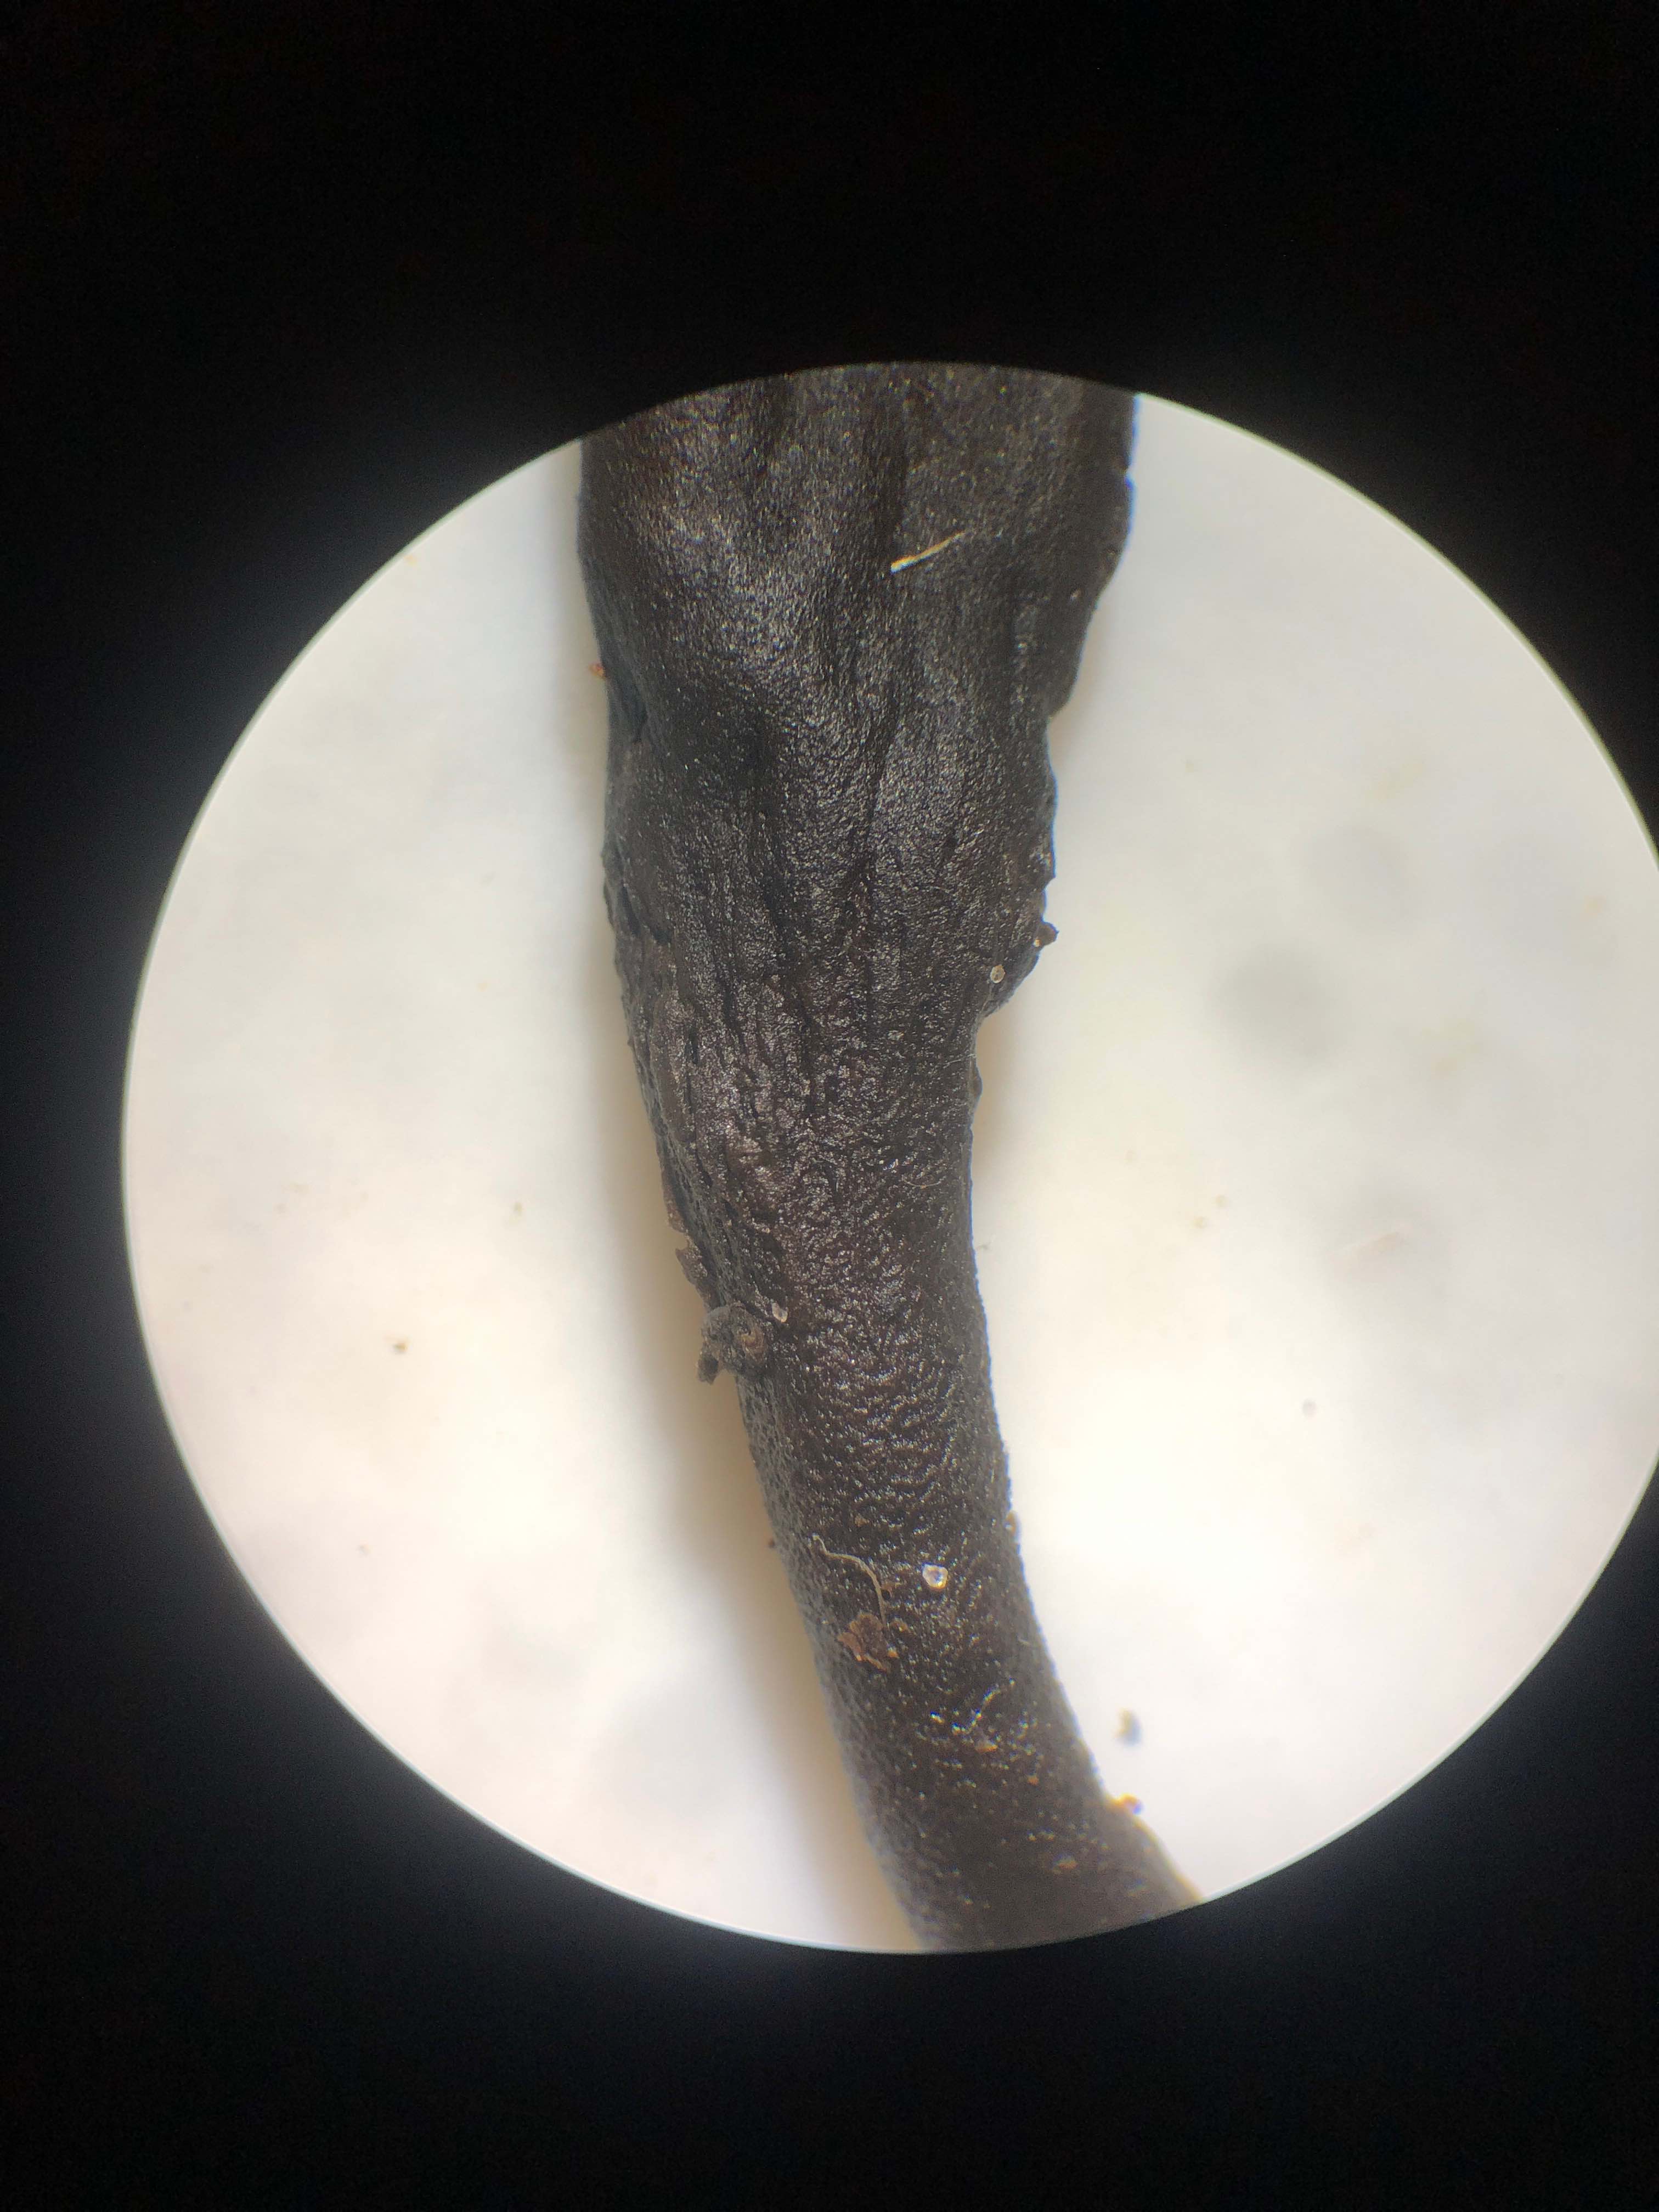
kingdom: Fungi
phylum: Ascomycota
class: Geoglossomycetes
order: Geoglossales
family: Geoglossaceae
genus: Geoglossum
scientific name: Geoglossum umbratile
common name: slank jordtunge
